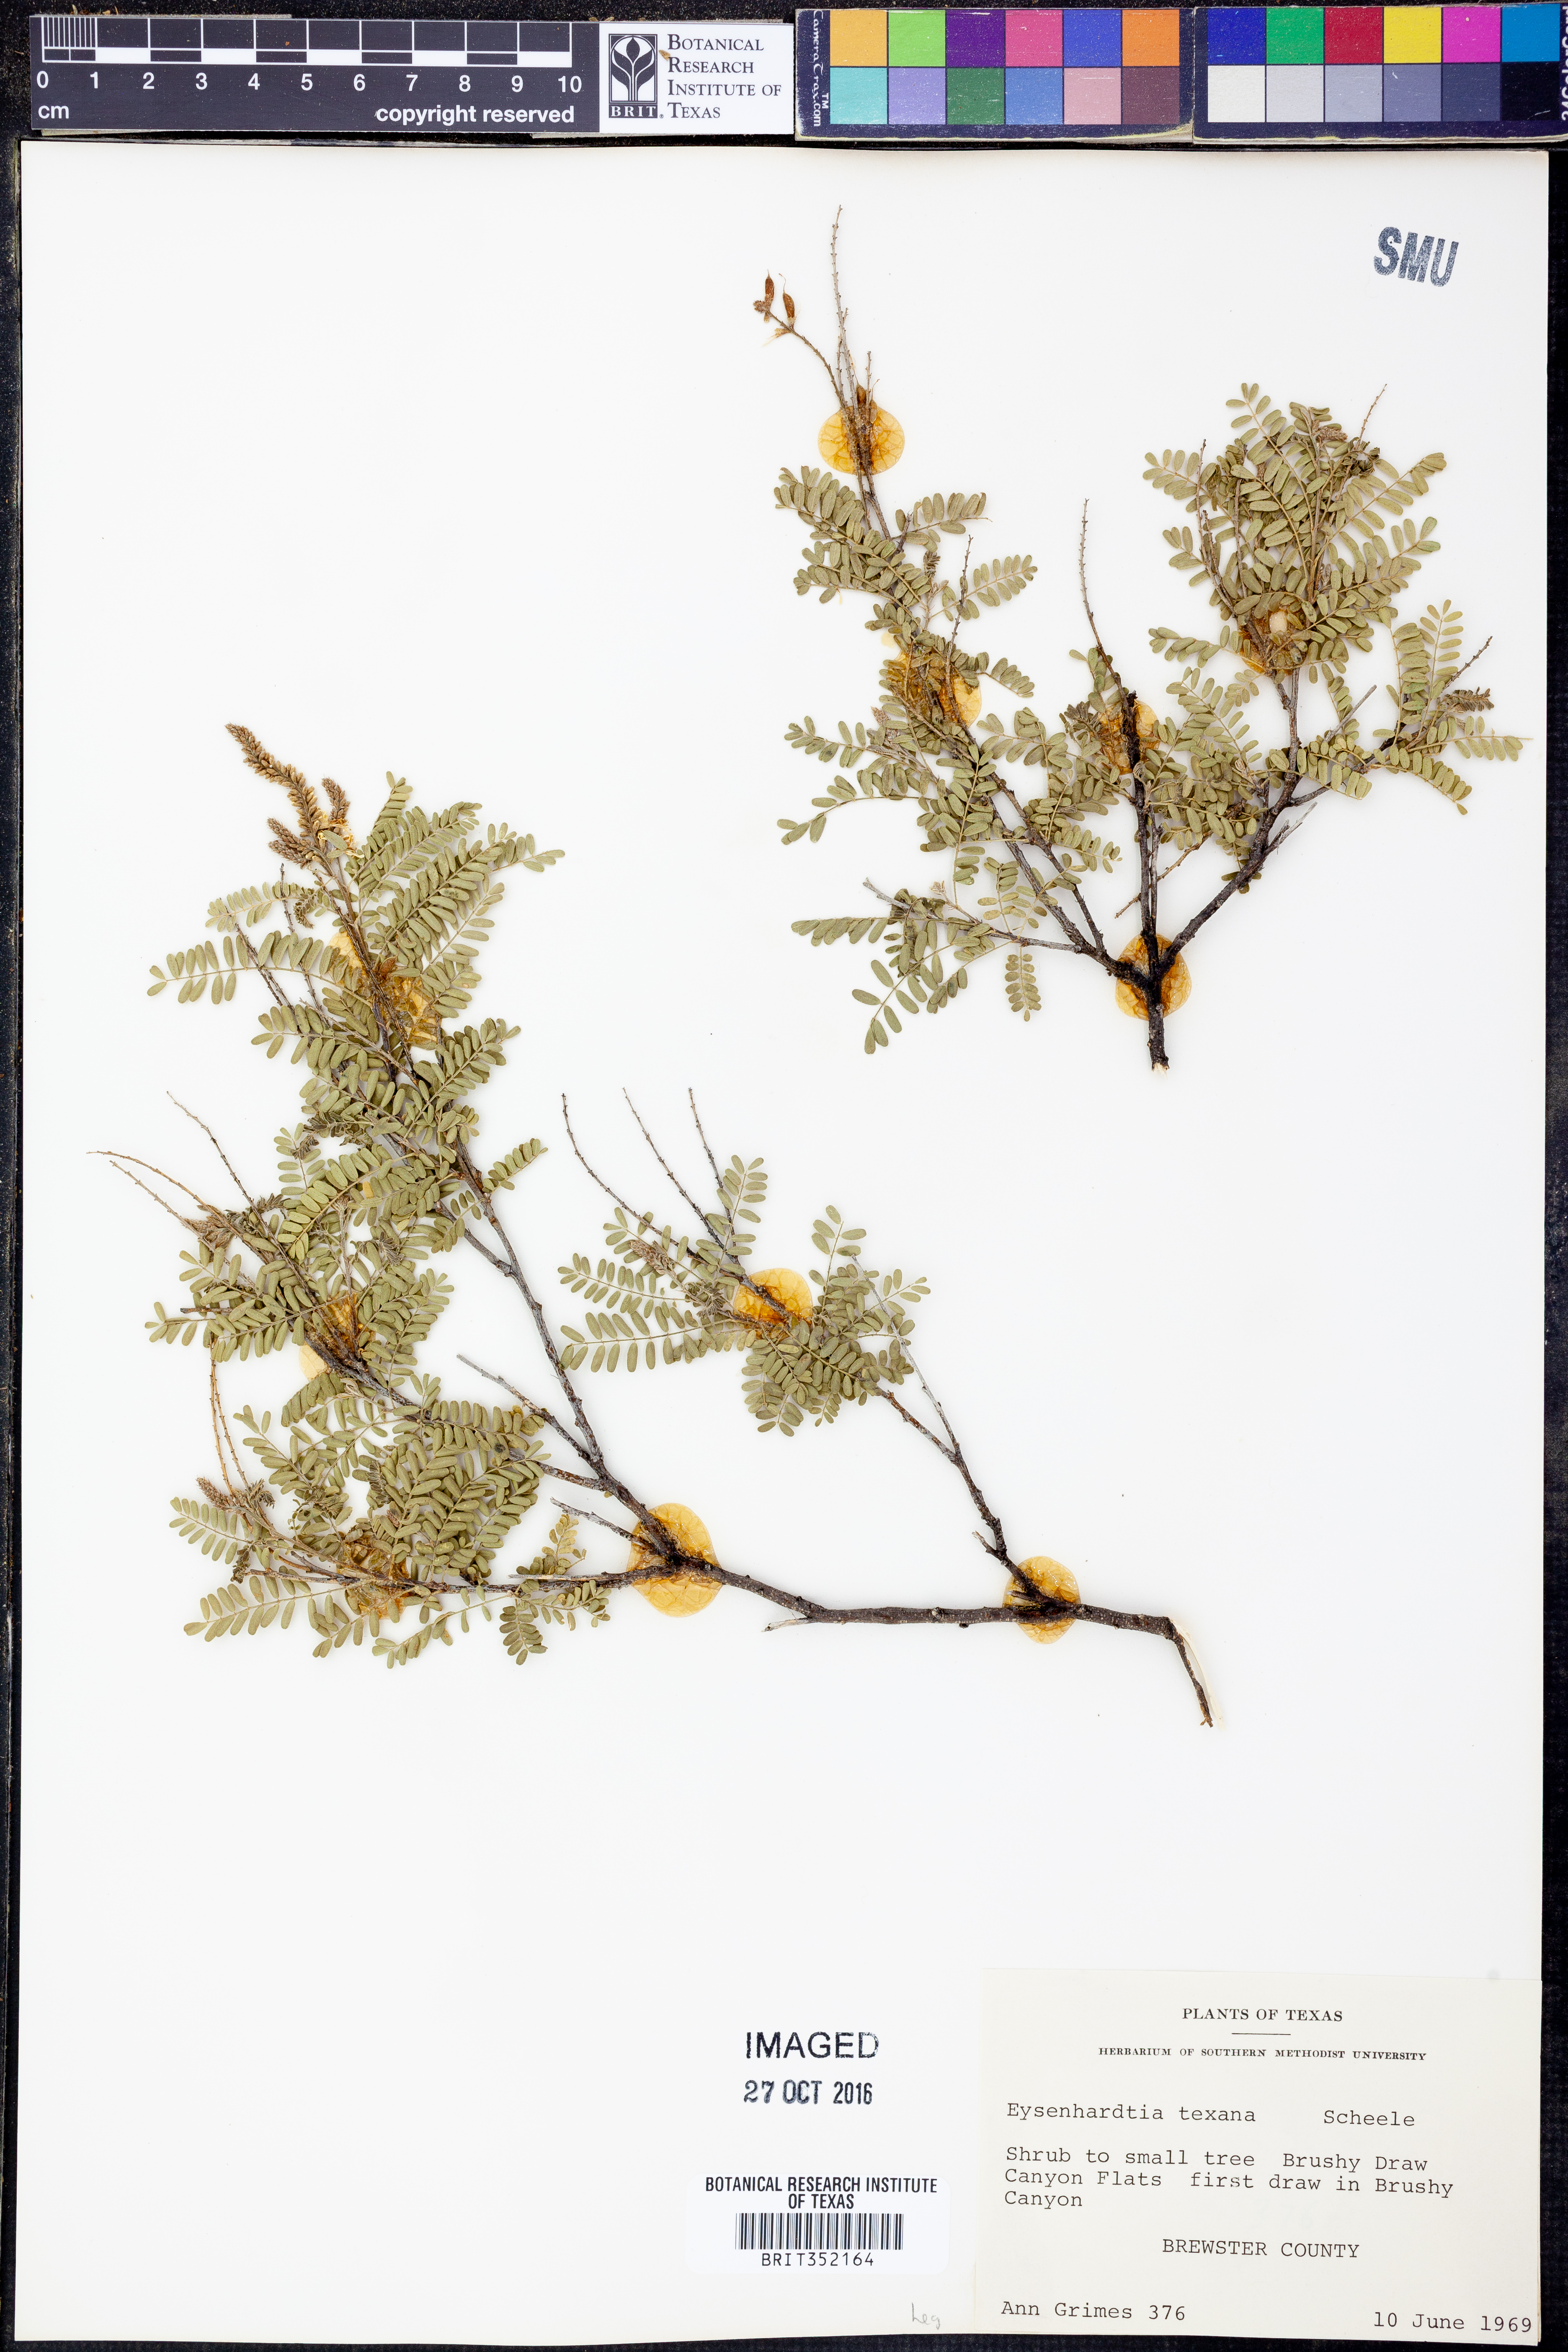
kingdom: Plantae
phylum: Tracheophyta
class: Magnoliopsida
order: Fabales
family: Fabaceae
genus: Eysenhardtia
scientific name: Eysenhardtia texana
